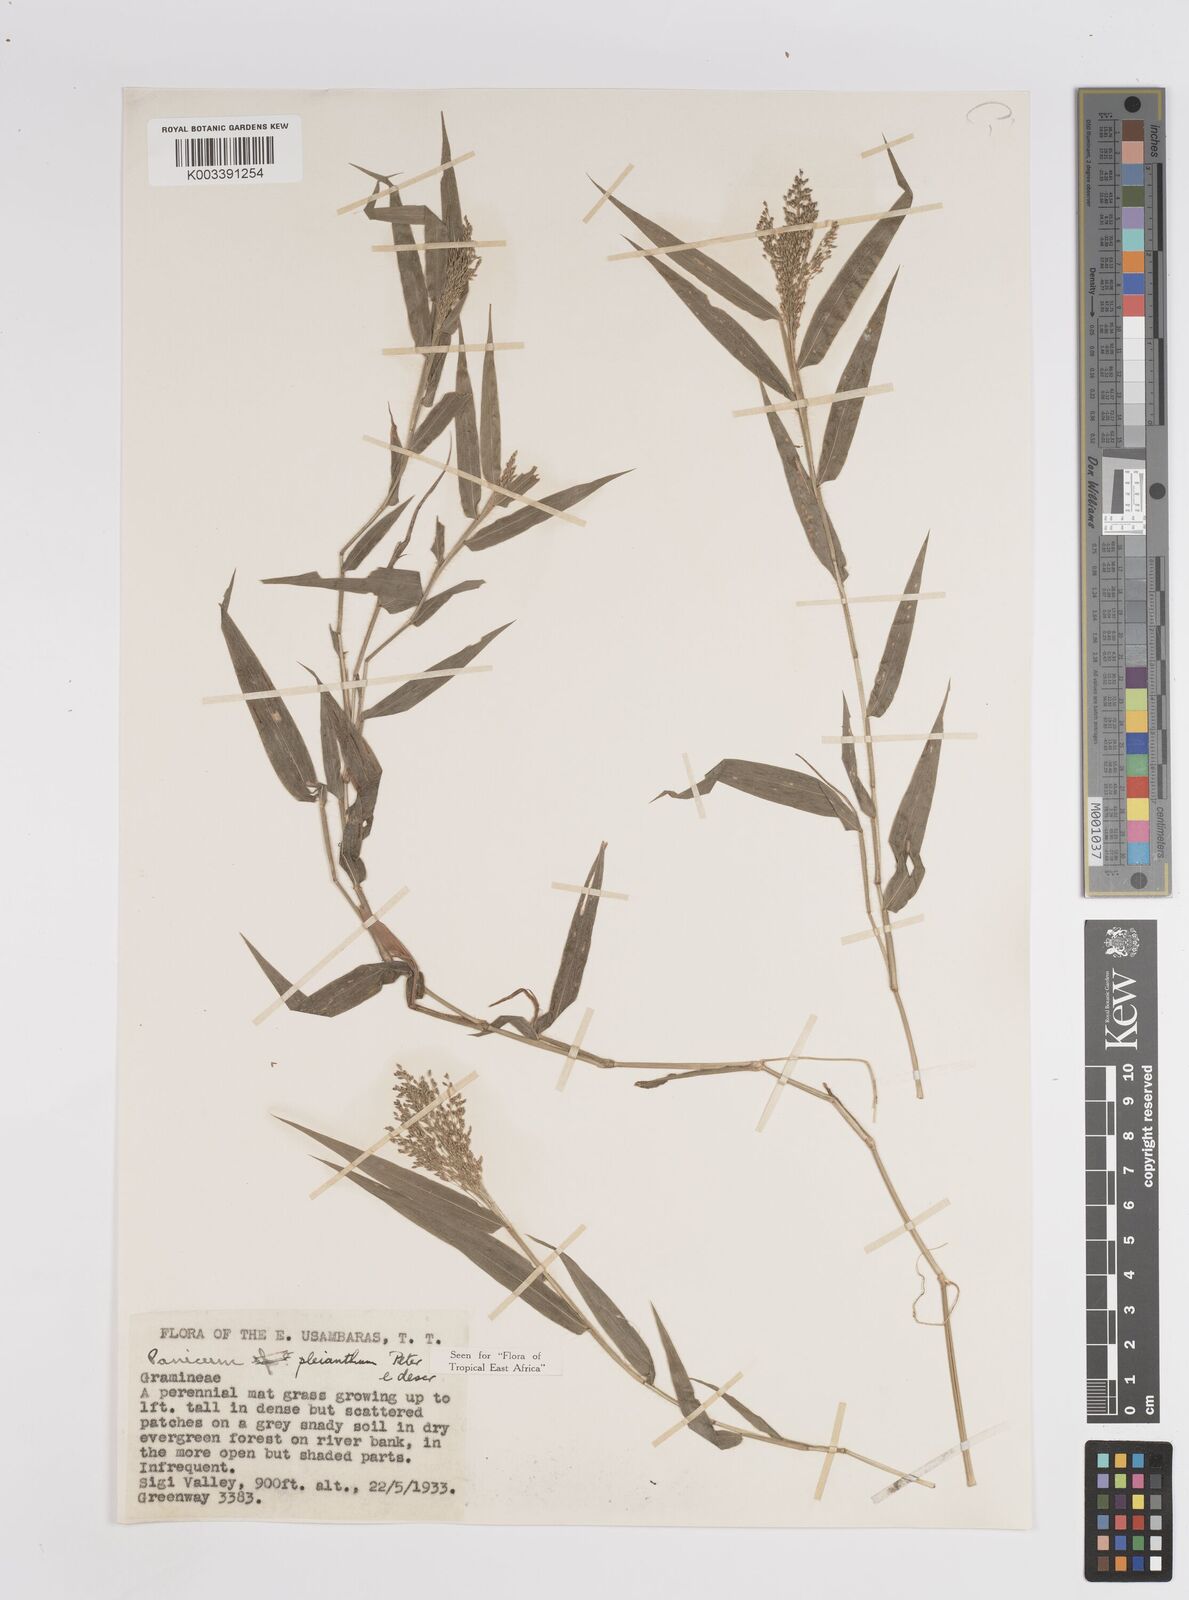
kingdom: Plantae
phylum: Tracheophyta
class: Liliopsida
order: Poales
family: Poaceae
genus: Panicum
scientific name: Panicum pleianthum
